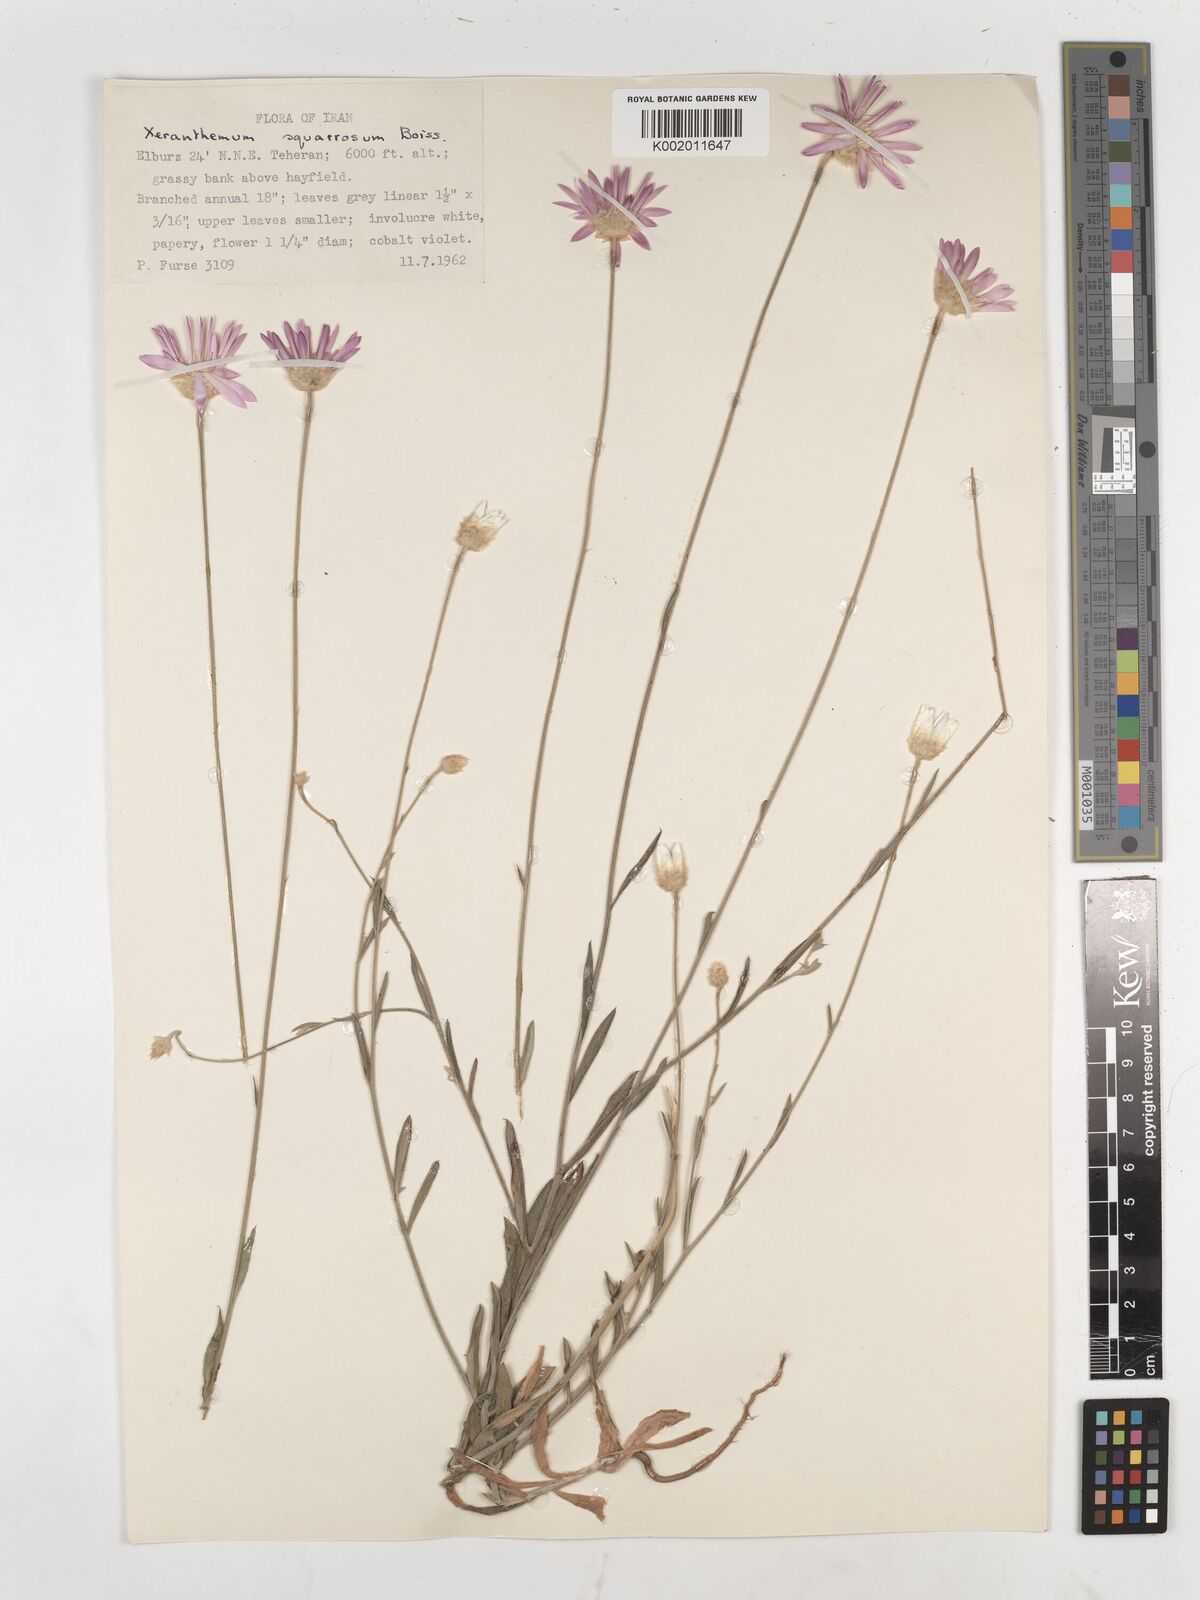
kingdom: Plantae
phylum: Tracheophyta
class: Magnoliopsida
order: Asterales
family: Asteraceae
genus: Xeranthemum
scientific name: Xeranthemum squarrosum
